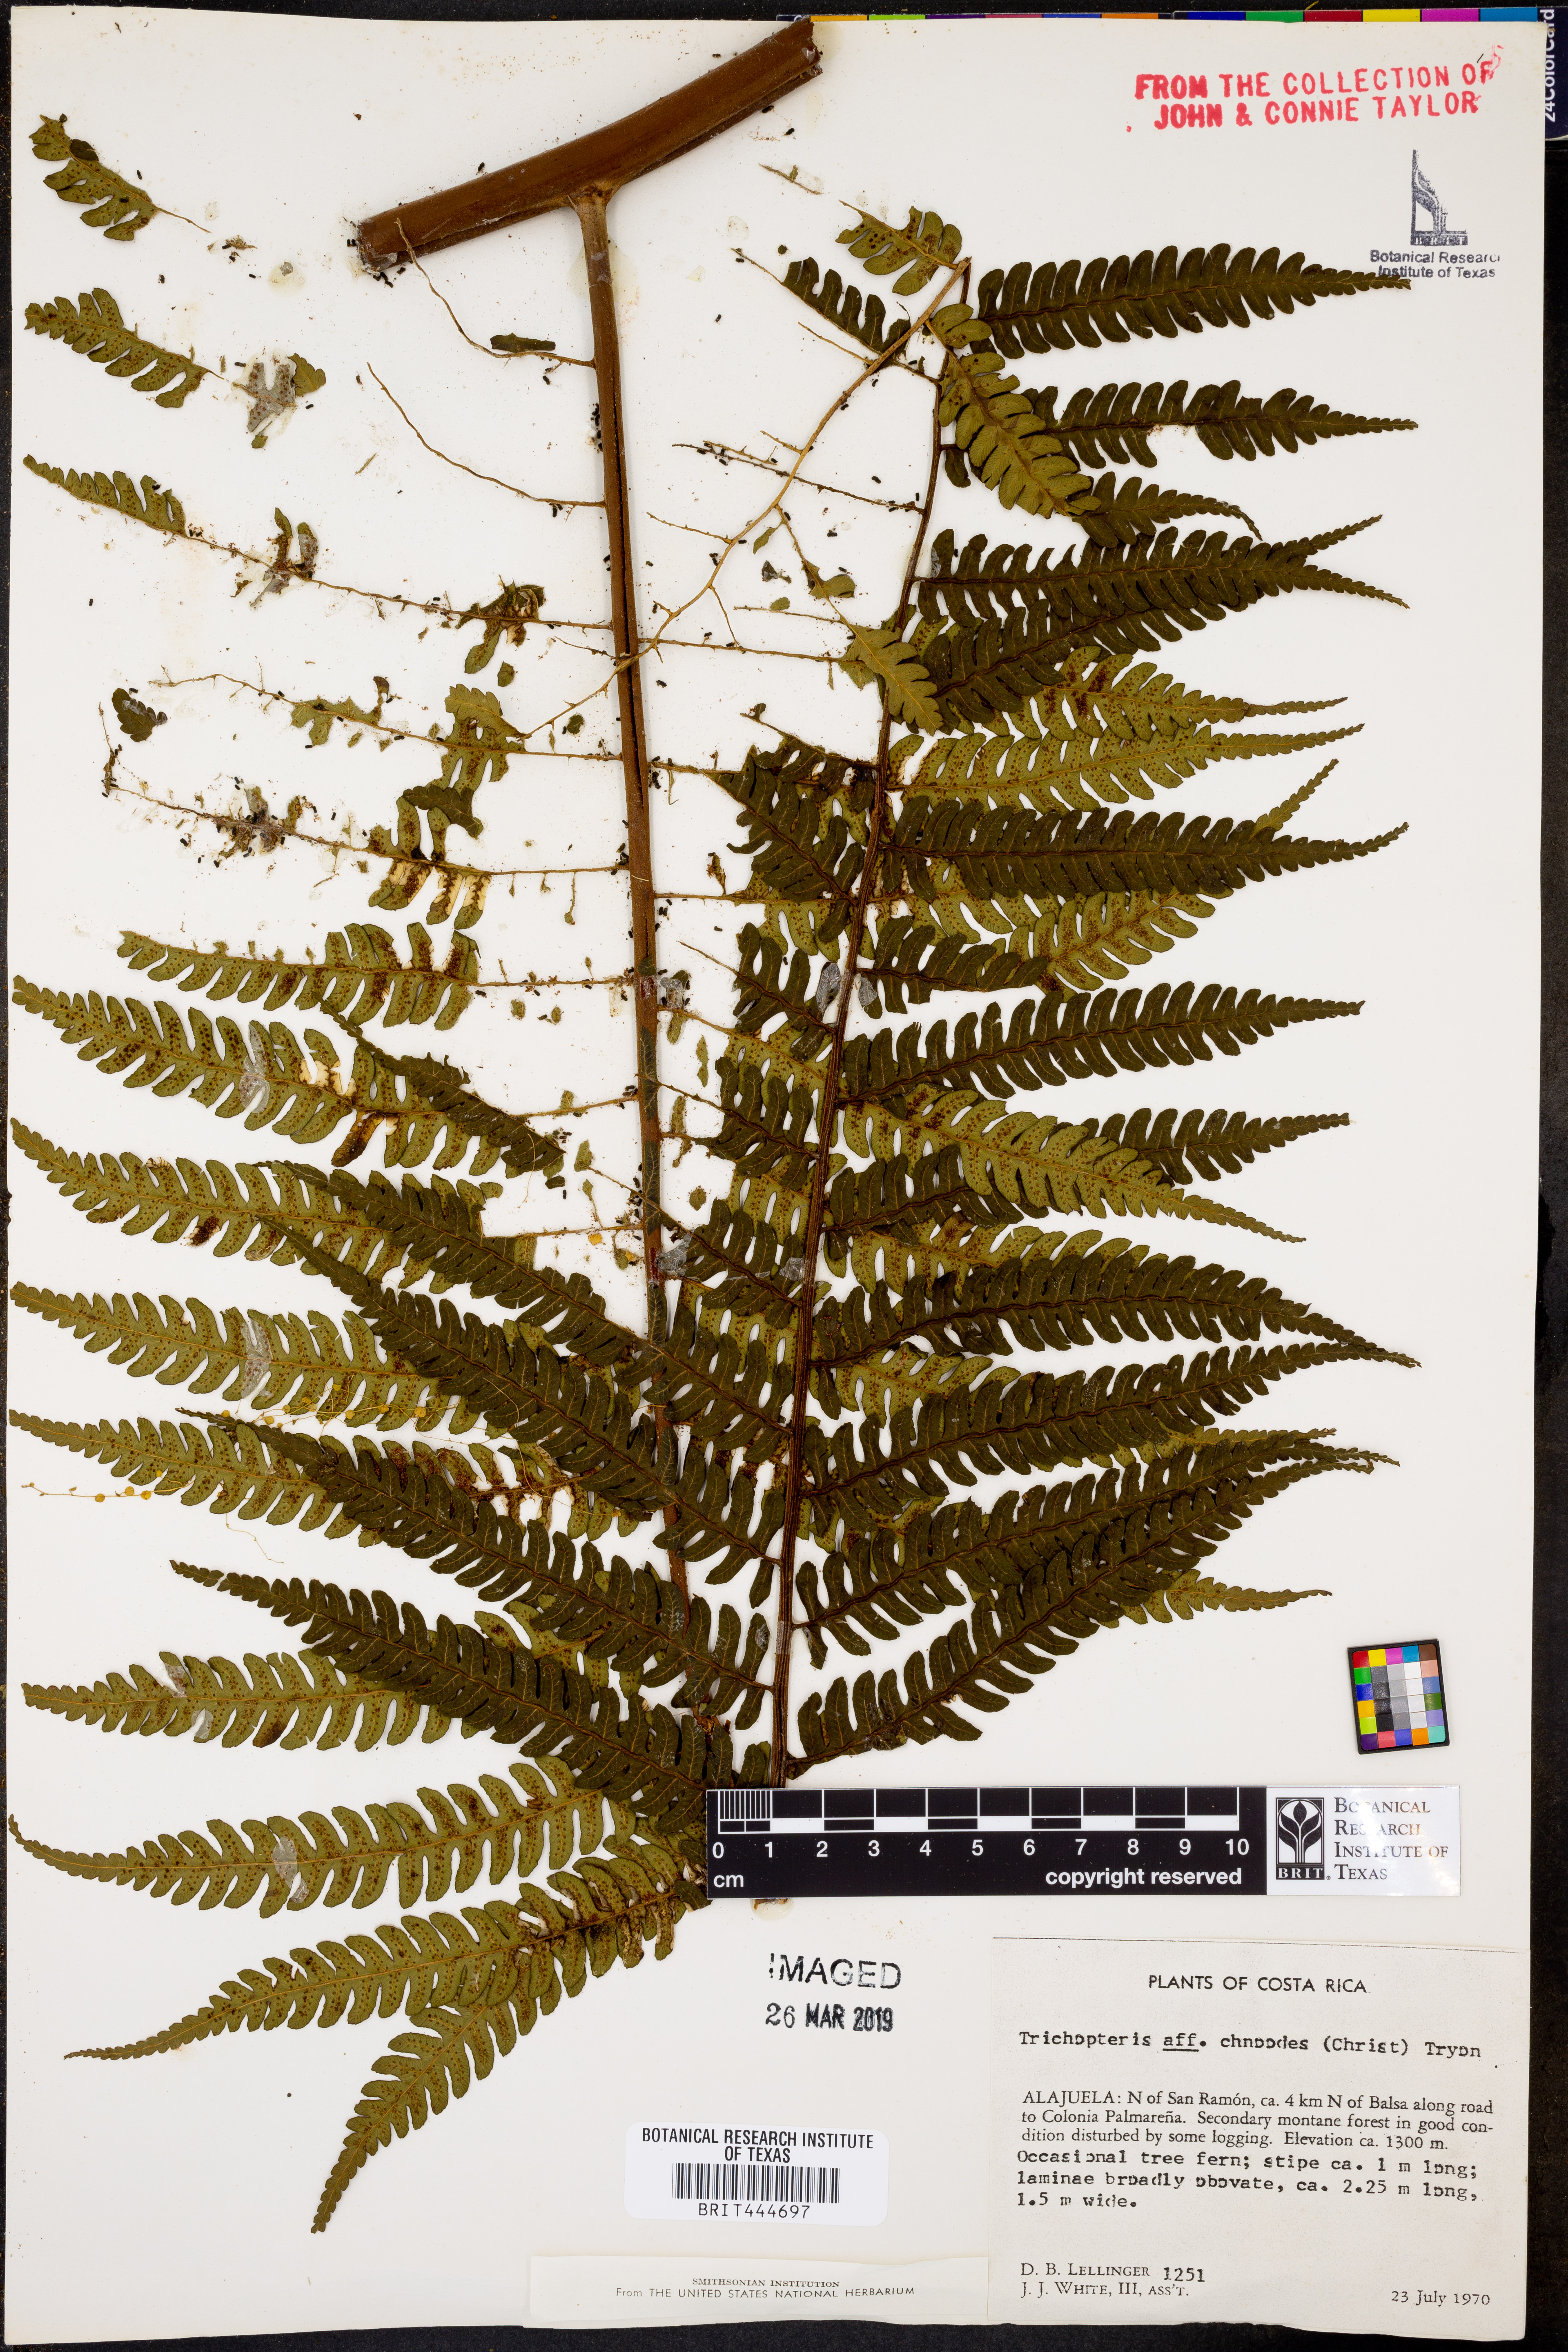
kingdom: Plantae
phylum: Tracheophyta
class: Polypodiopsida
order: Cyatheales
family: Cyatheaceae
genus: Cyathea
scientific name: Cyathea schiedeana
